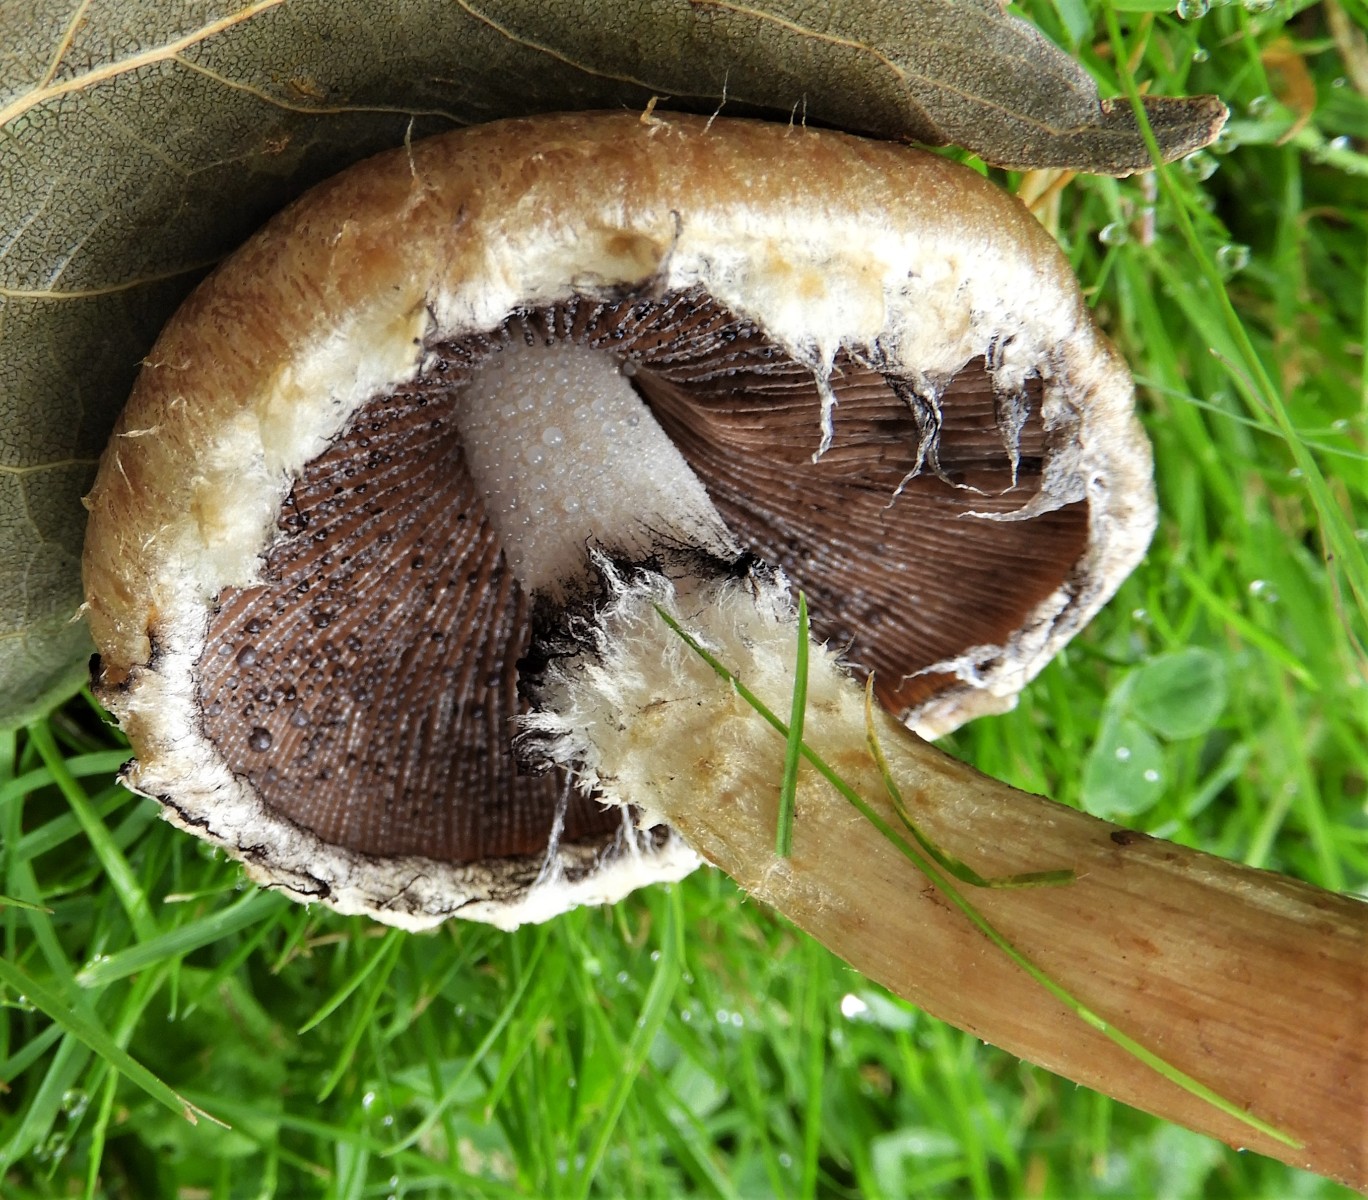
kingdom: Fungi
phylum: Basidiomycota
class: Agaricomycetes
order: Agaricales
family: Psathyrellaceae
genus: Lacrymaria
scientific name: Lacrymaria lacrymabunda
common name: grædende mørkhat
